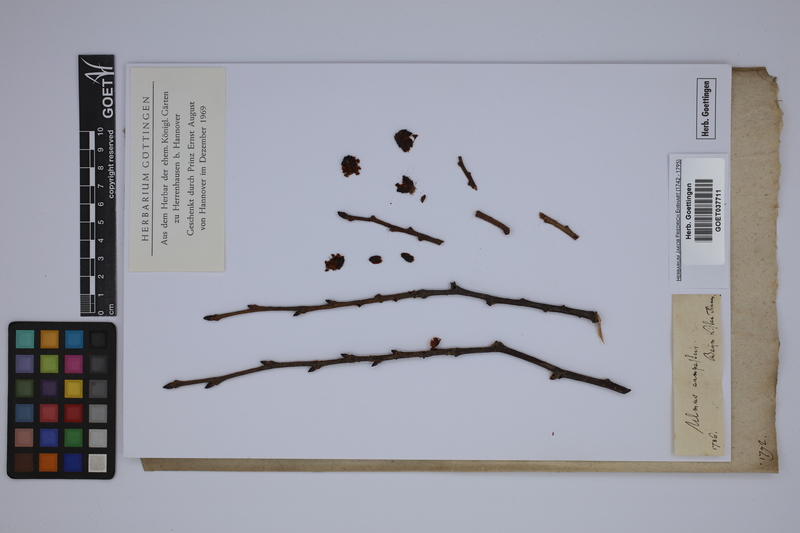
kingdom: Plantae
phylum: Tracheophyta
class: Magnoliopsida
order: Rosales
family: Ulmaceae
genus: Ulmus
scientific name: Ulmus laevis
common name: European white-elm
